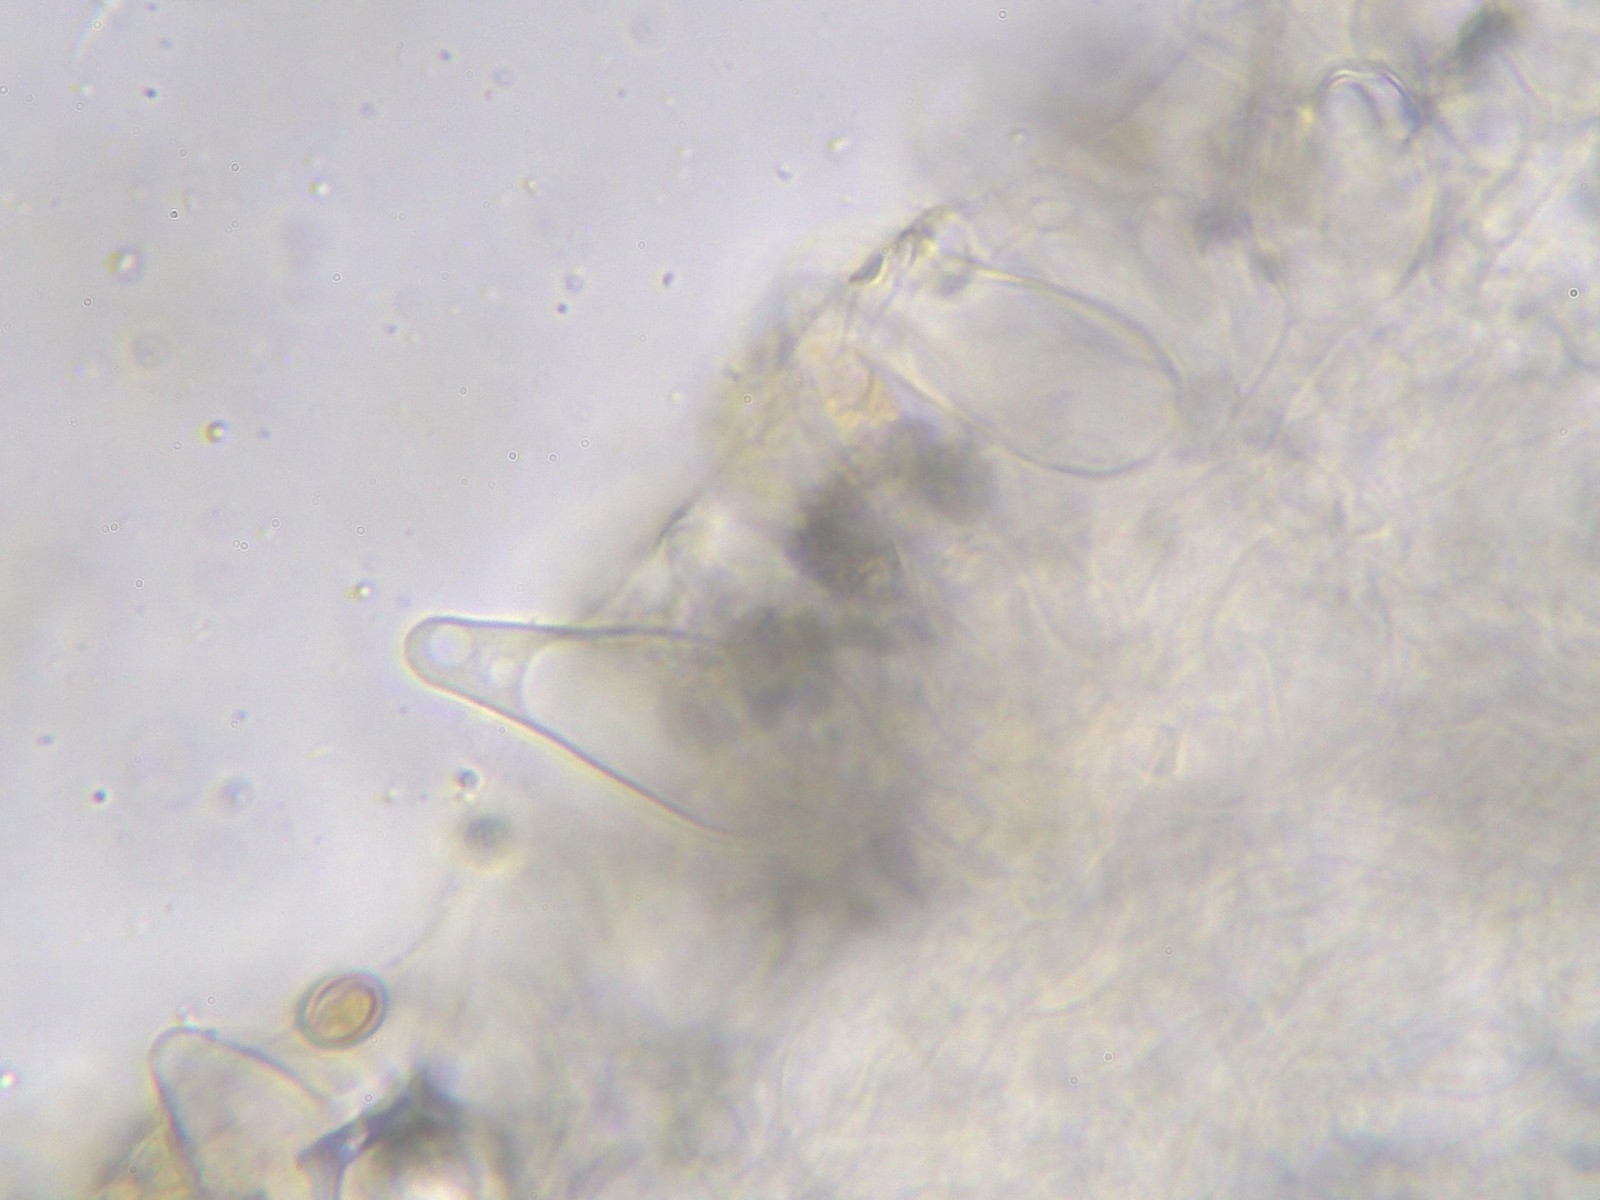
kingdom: Fungi
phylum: Basidiomycota
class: Agaricomycetes
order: Agaricales
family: Strophariaceae
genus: Pholiota
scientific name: Pholiota carbonaria
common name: kul-skælhat
